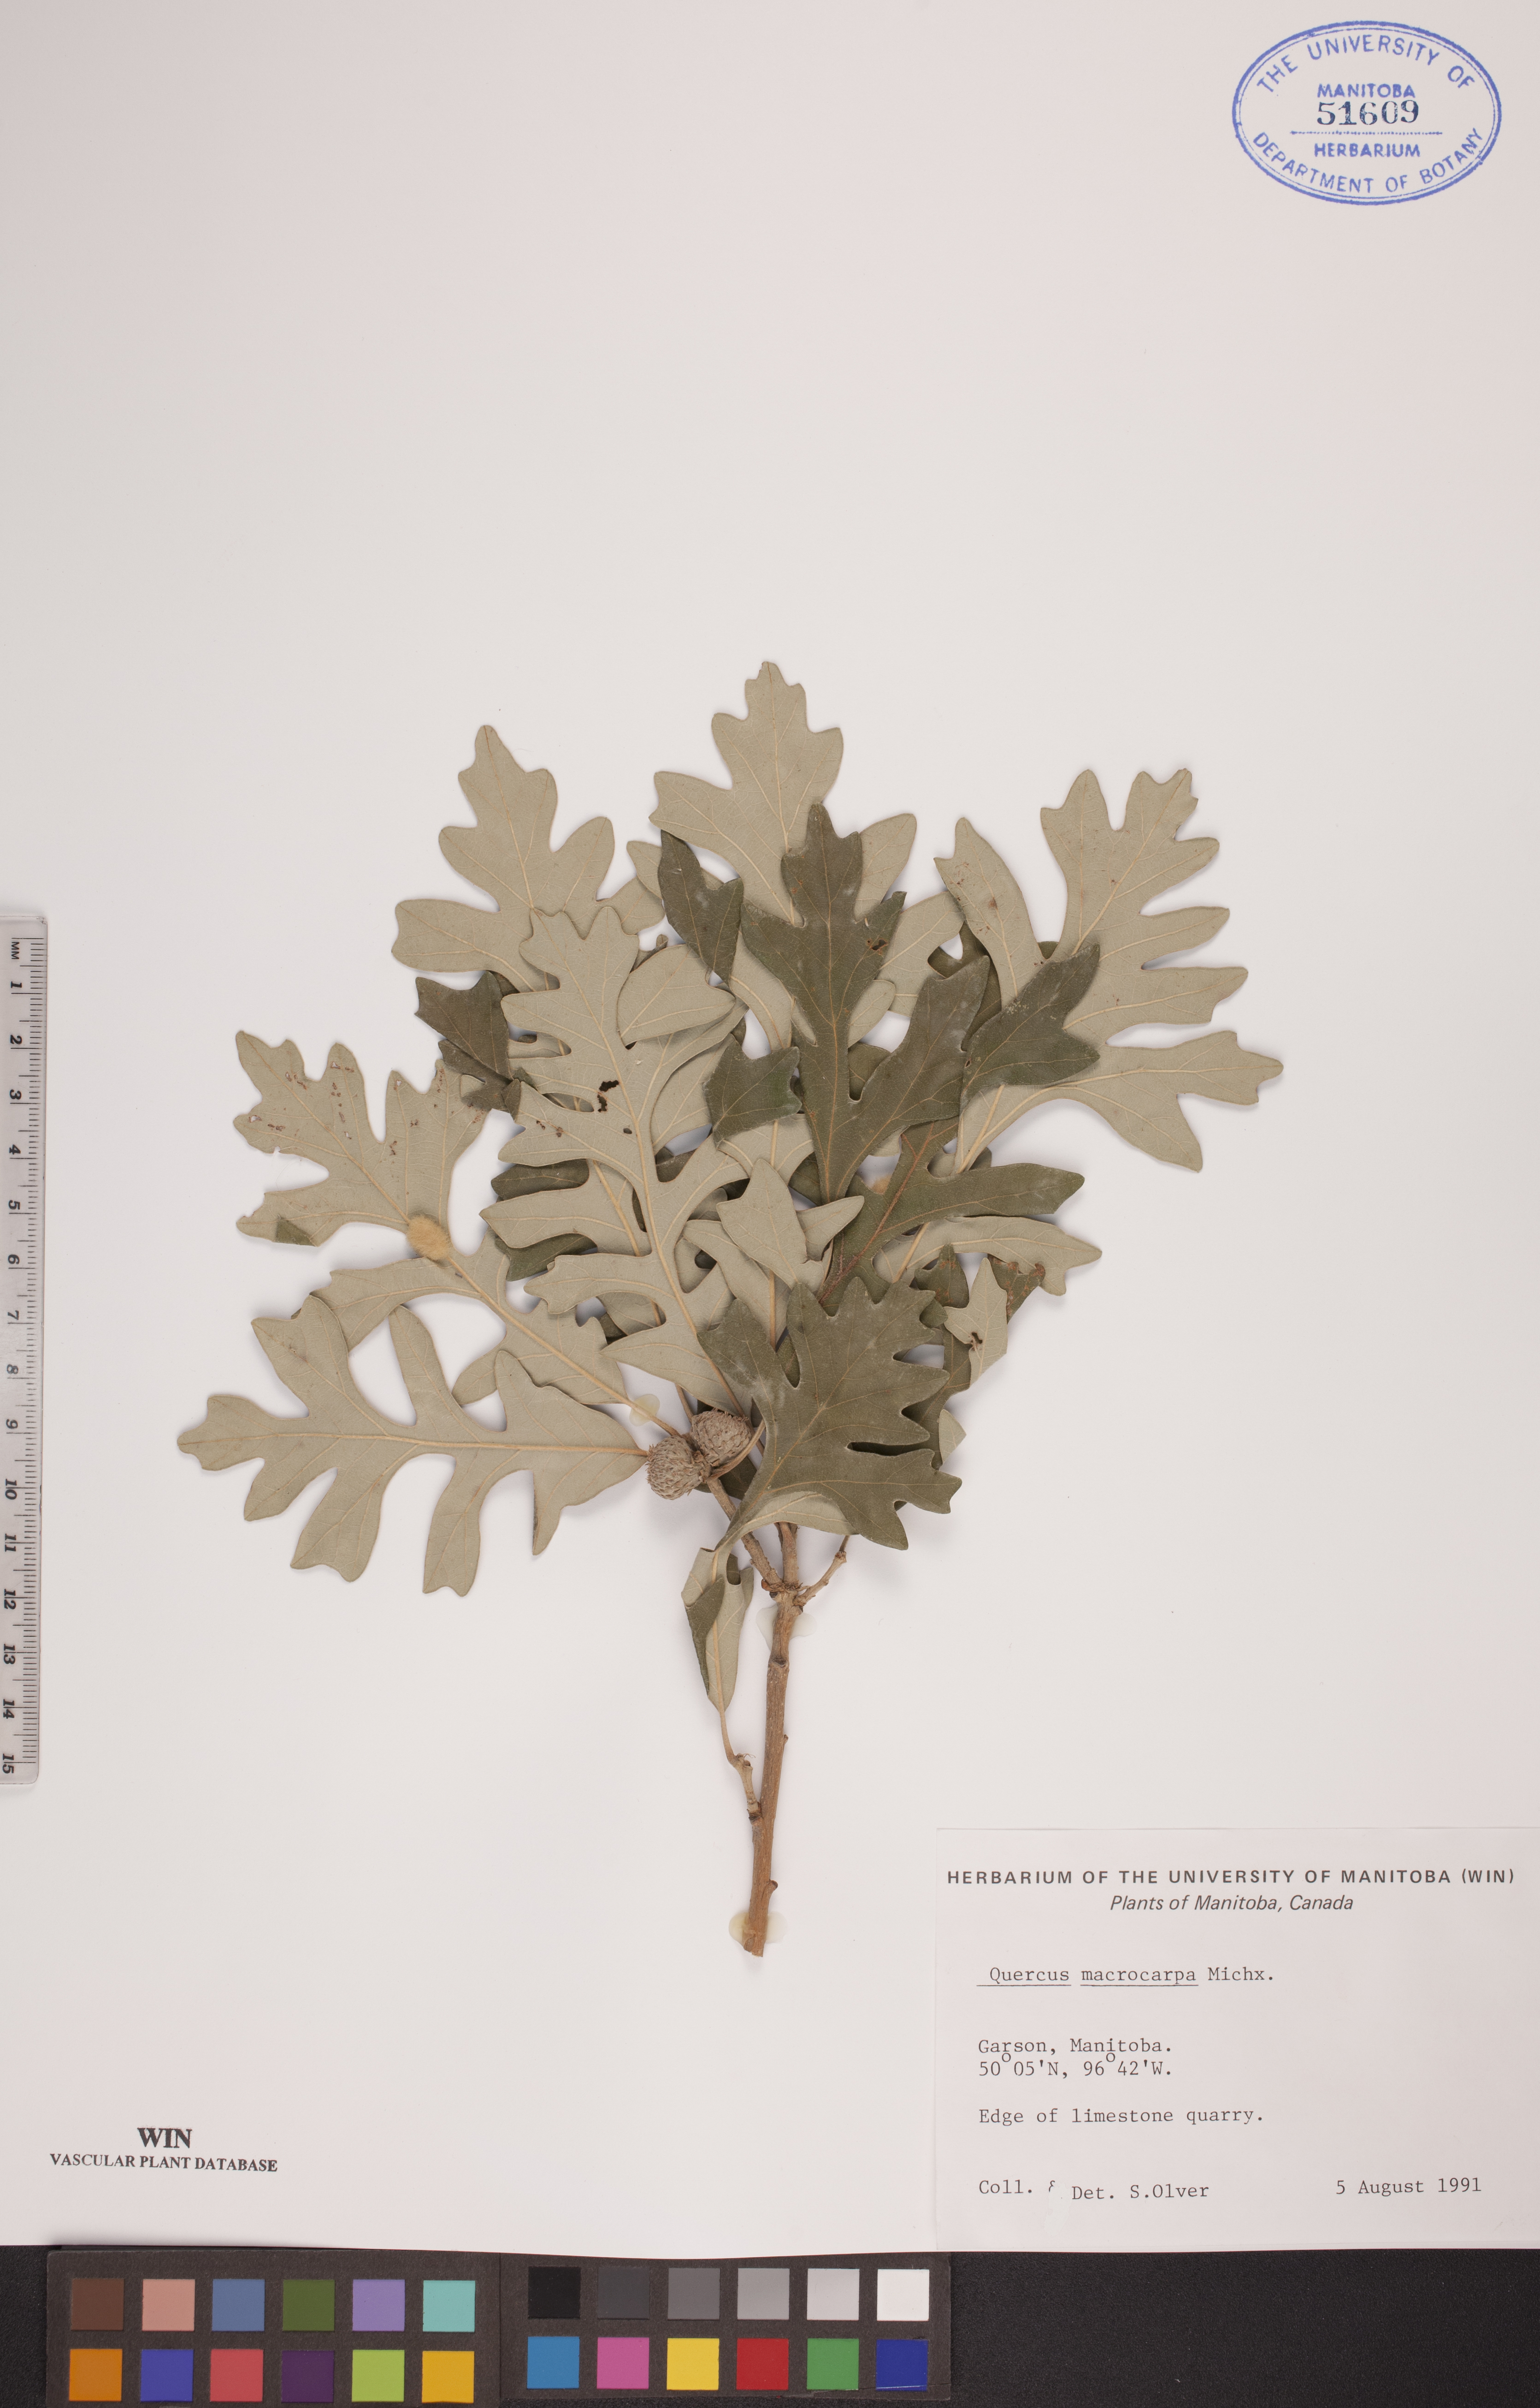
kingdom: Plantae
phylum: Tracheophyta
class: Magnoliopsida
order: Fagales
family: Fagaceae
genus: Quercus
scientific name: Quercus macrocarpa
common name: Bur oak
